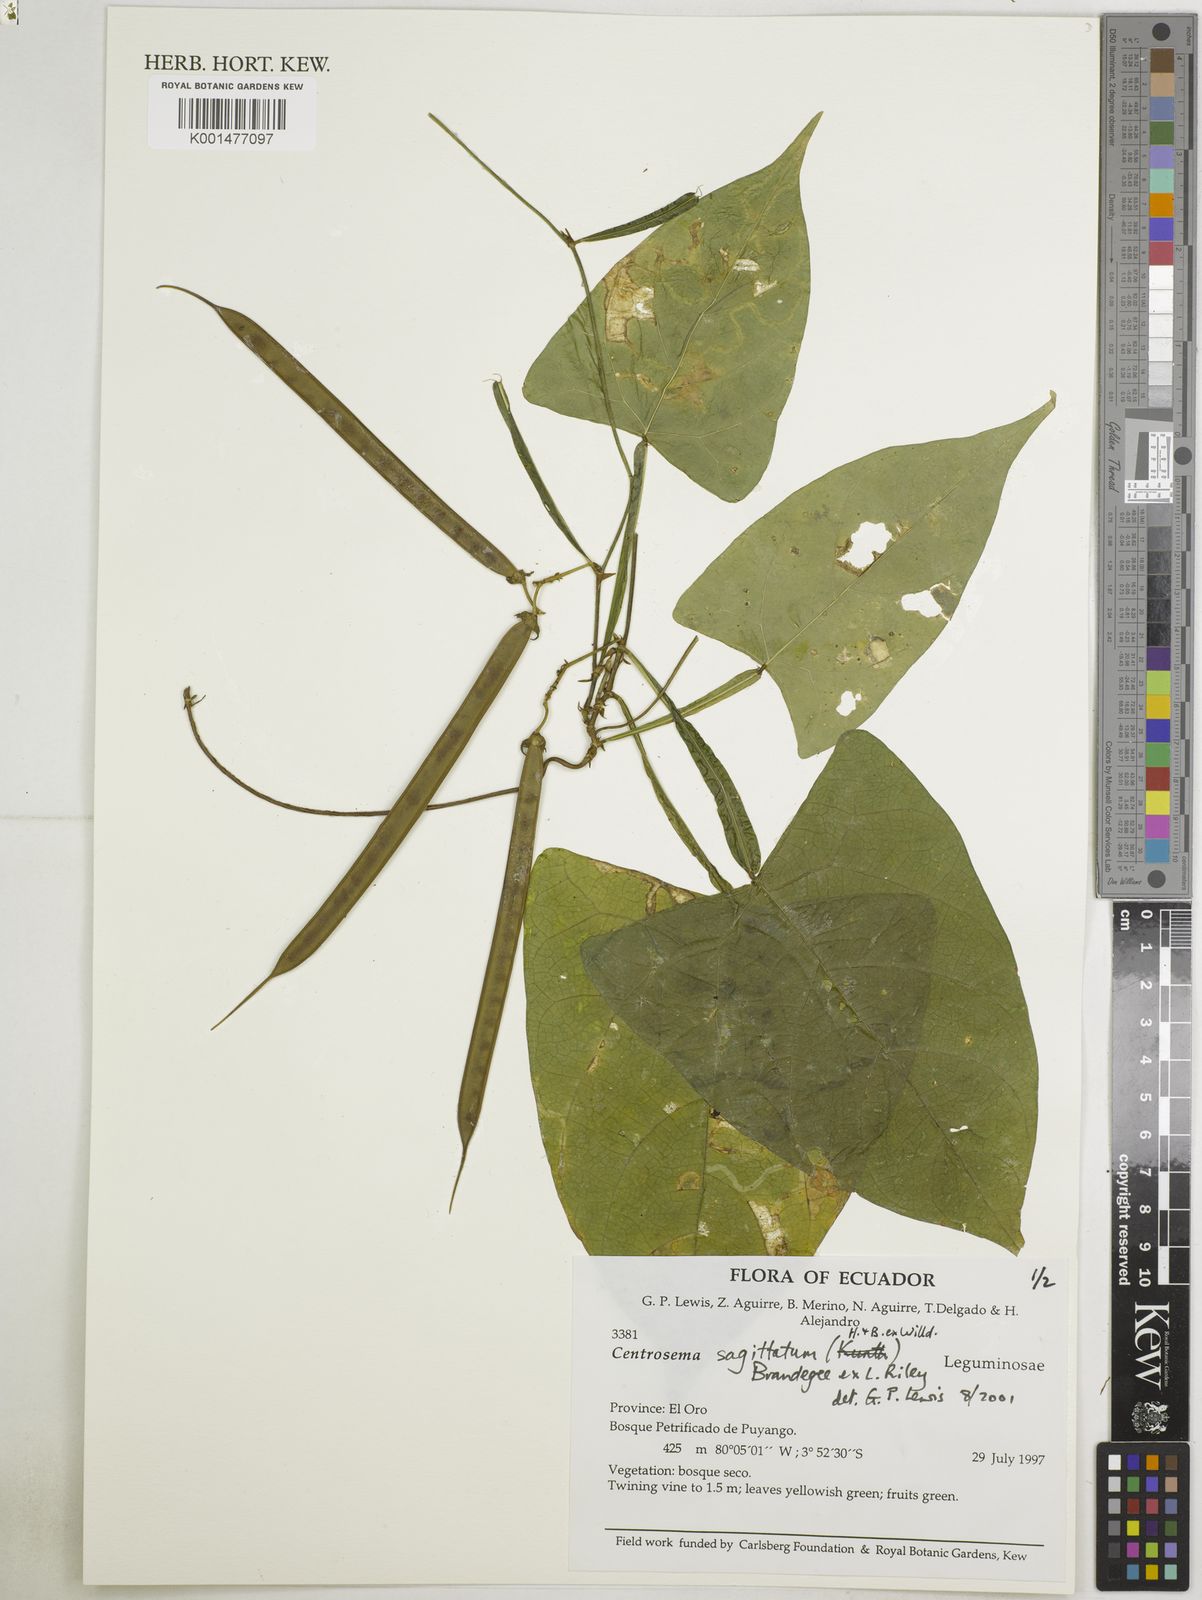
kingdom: Plantae
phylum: Tracheophyta
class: Magnoliopsida
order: Fabales
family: Fabaceae
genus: Centrosema
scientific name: Centrosema sagittatum
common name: Arrowleaf butterfly pea
